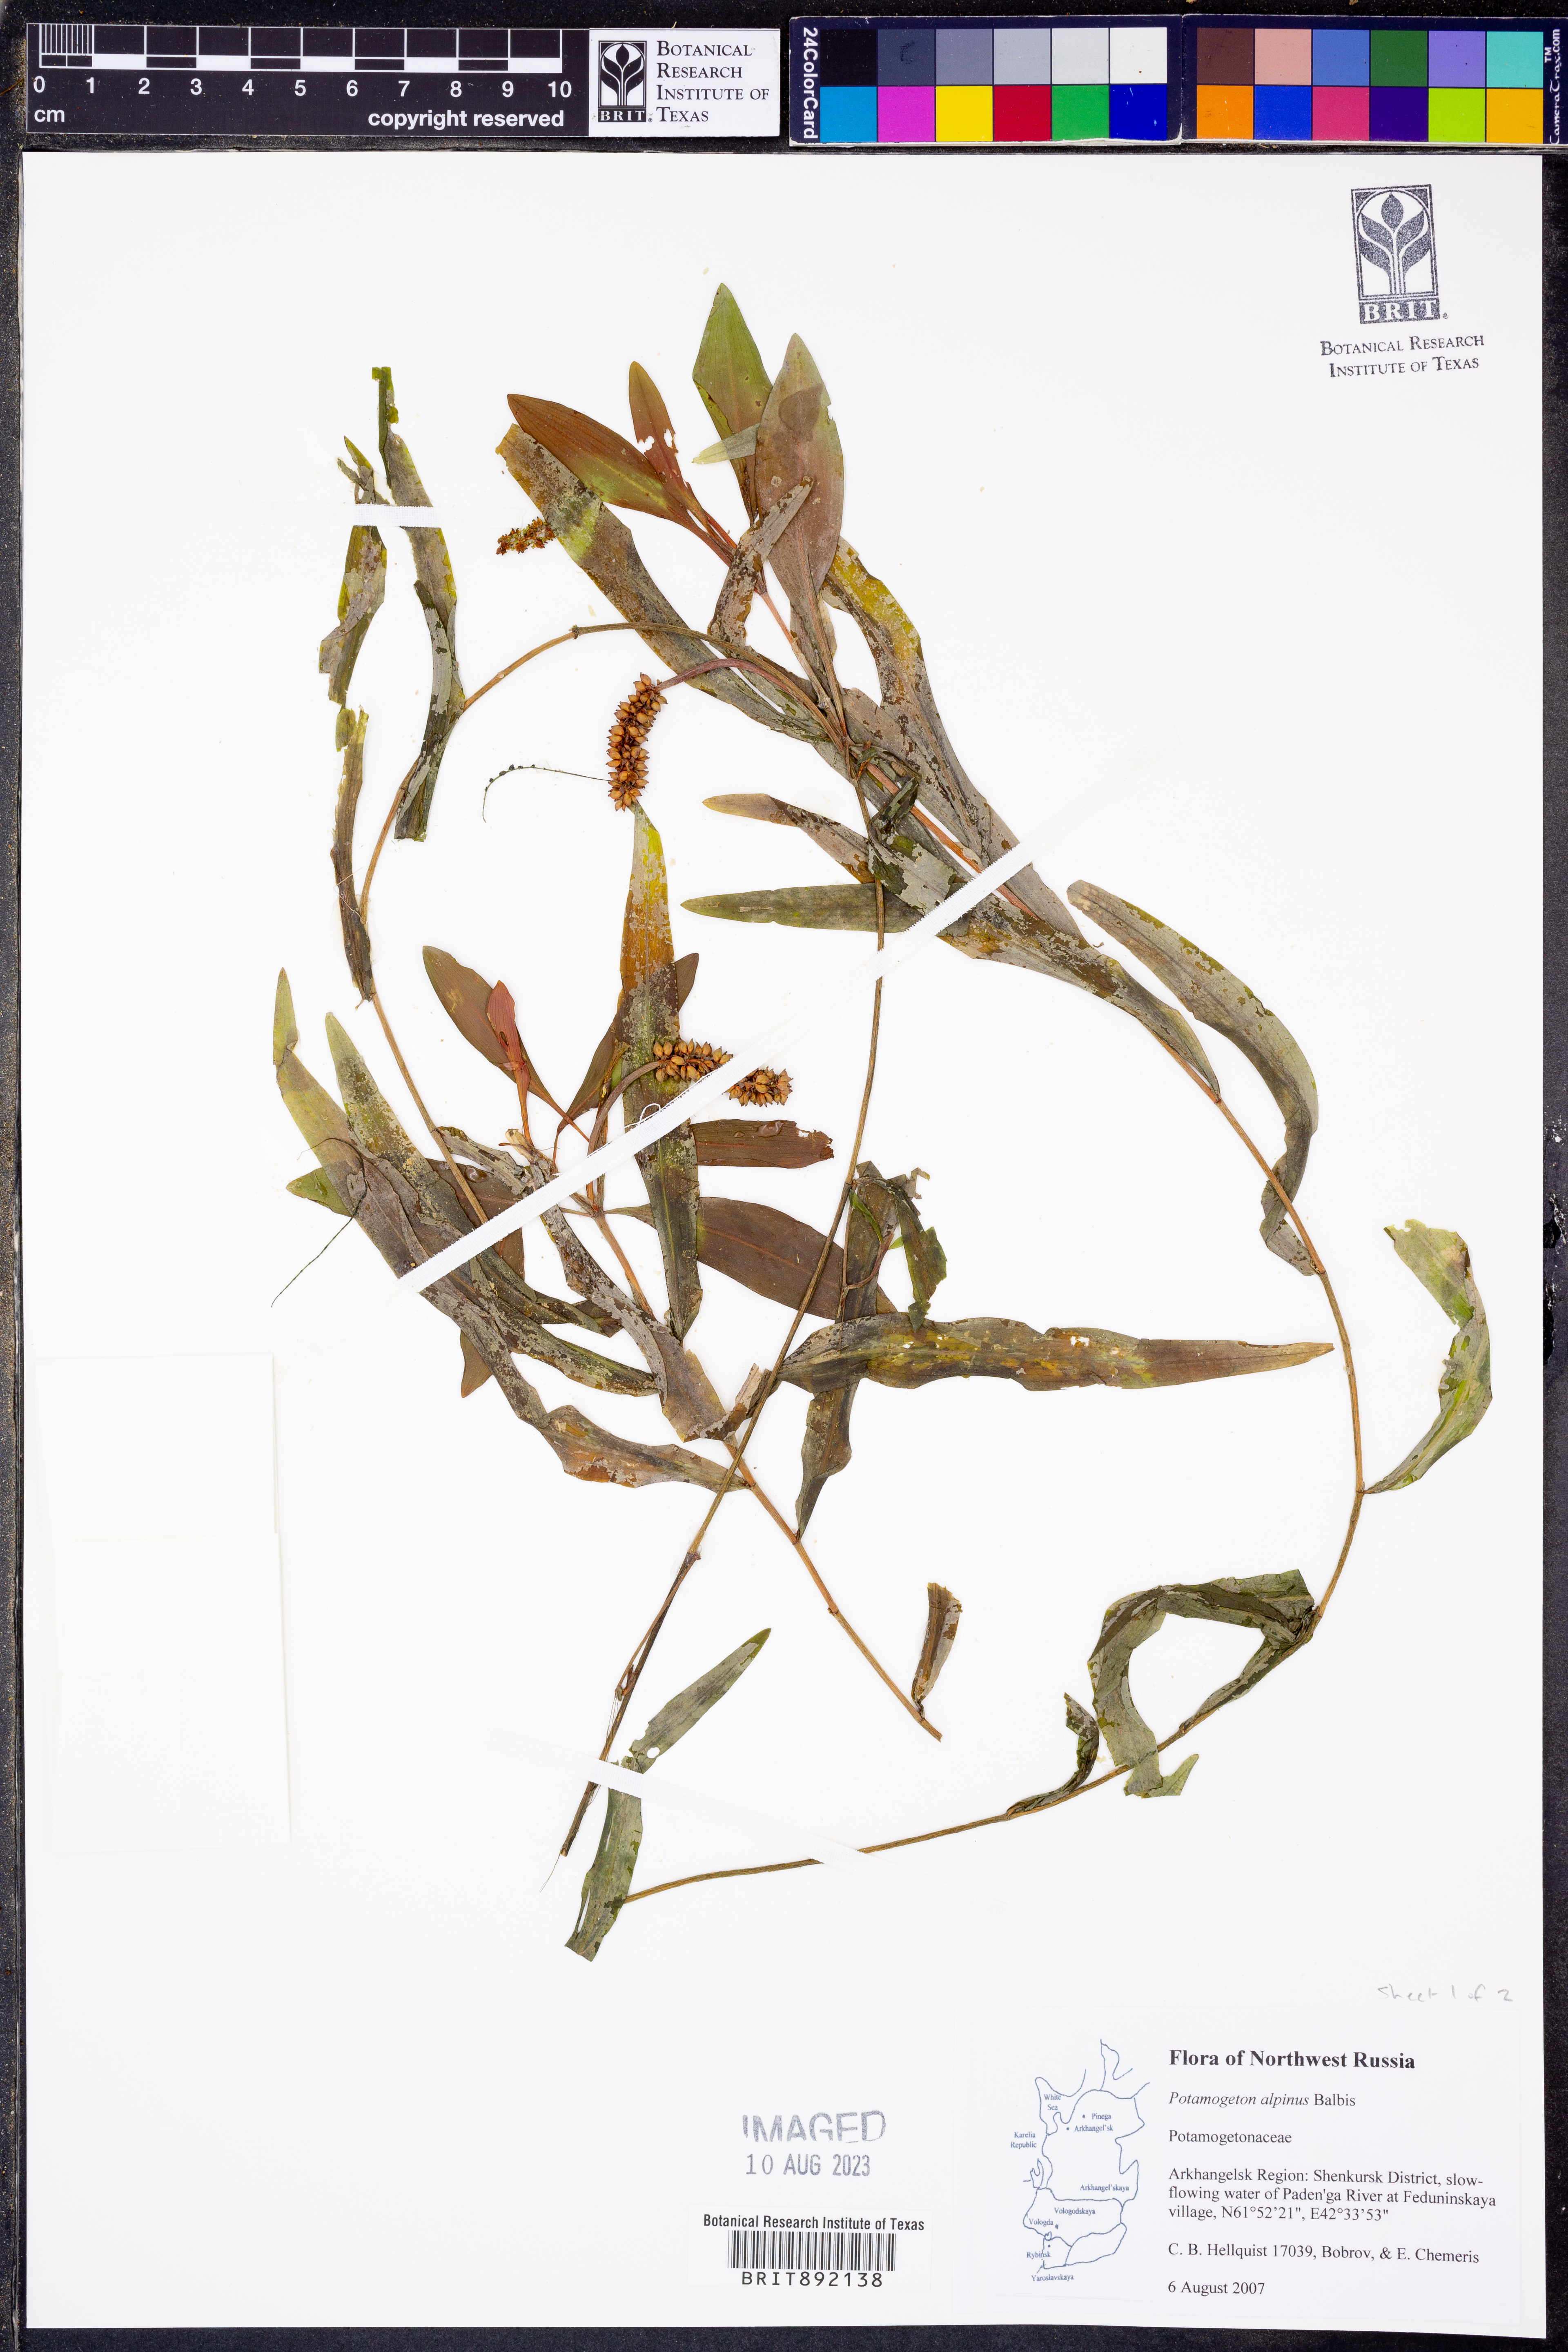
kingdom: Plantae
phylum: Tracheophyta
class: Liliopsida
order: Alismatales
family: Potamogetonaceae
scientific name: Potamogetonaceae
